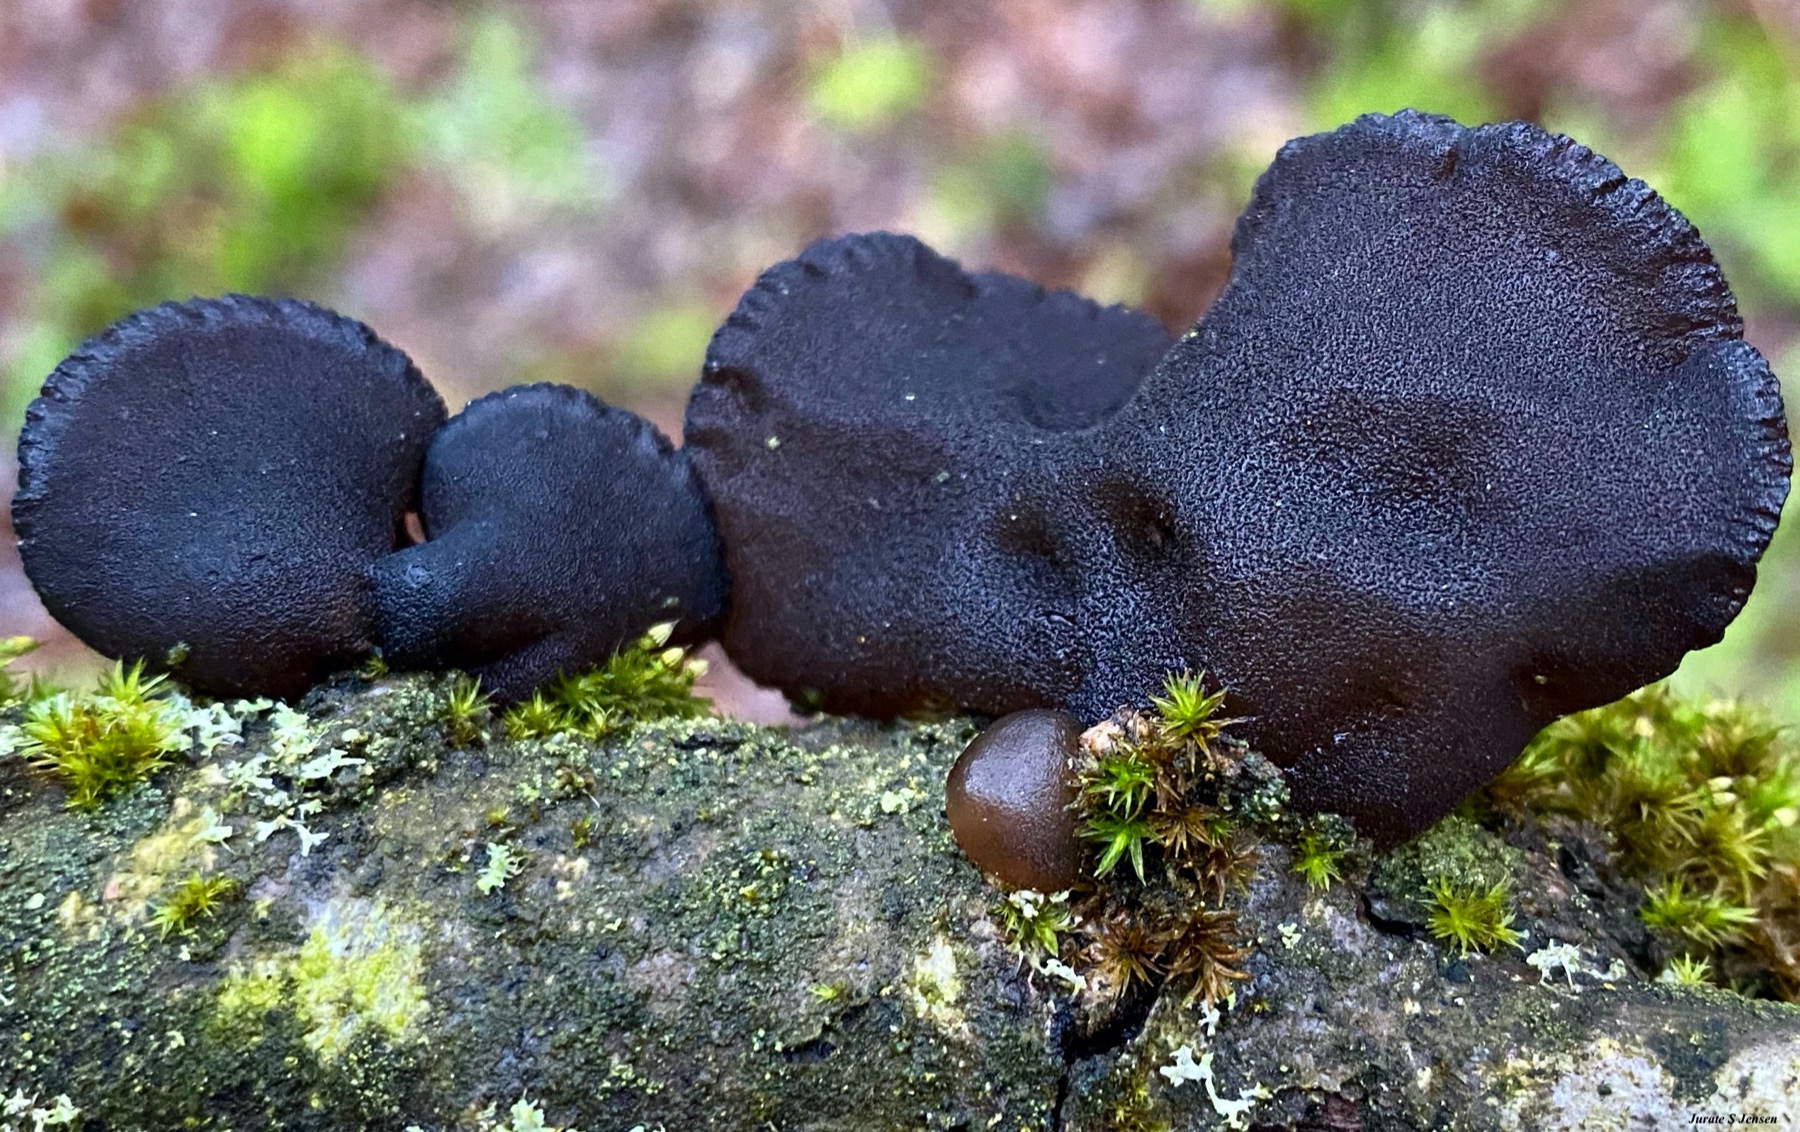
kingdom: Fungi
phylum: Basidiomycota
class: Agaricomycetes
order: Auriculariales
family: Auriculariaceae
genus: Exidia
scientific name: Exidia glandulosa
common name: ege-bævretop
